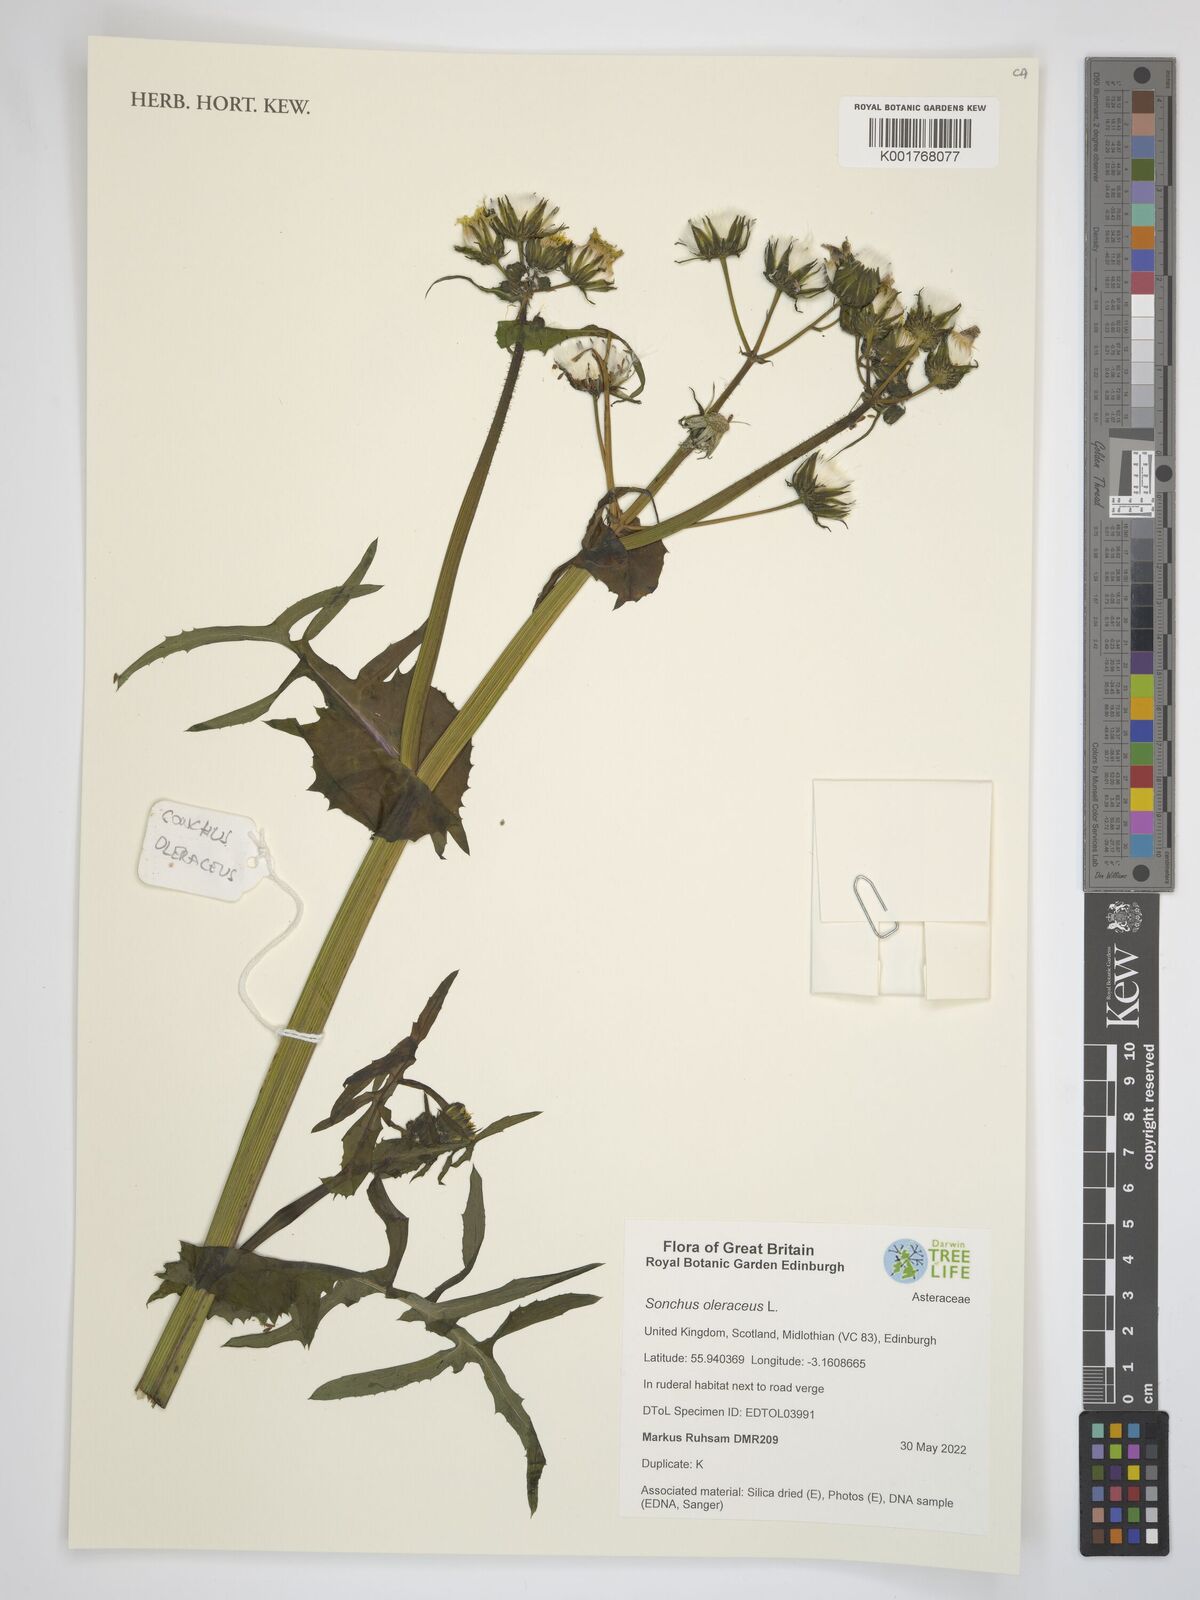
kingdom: Plantae
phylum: Tracheophyta
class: Magnoliopsida
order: Asterales
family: Asteraceae
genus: Sonchus
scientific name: Sonchus oleraceus
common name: Common sowthistle
